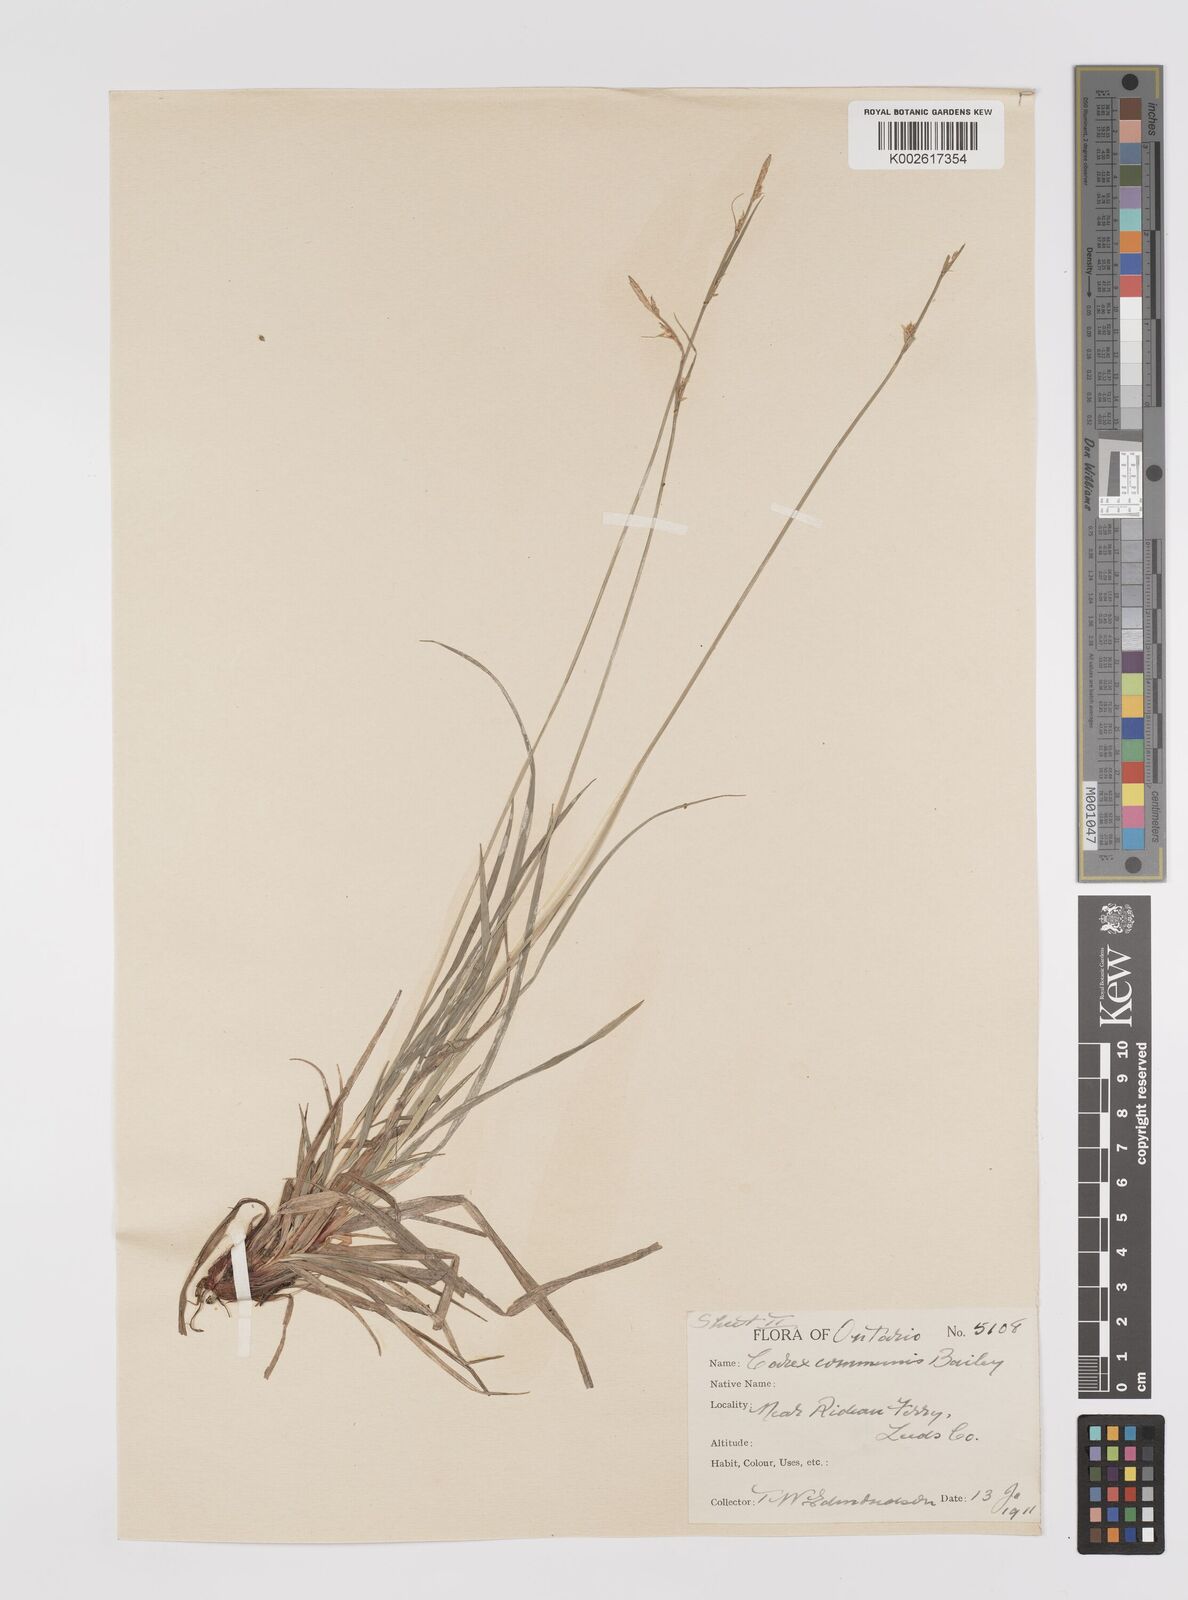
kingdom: Plantae
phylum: Tracheophyta
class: Liliopsida
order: Poales
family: Cyperaceae
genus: Carex
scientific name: Carex communis
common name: Colonial oak sedge
